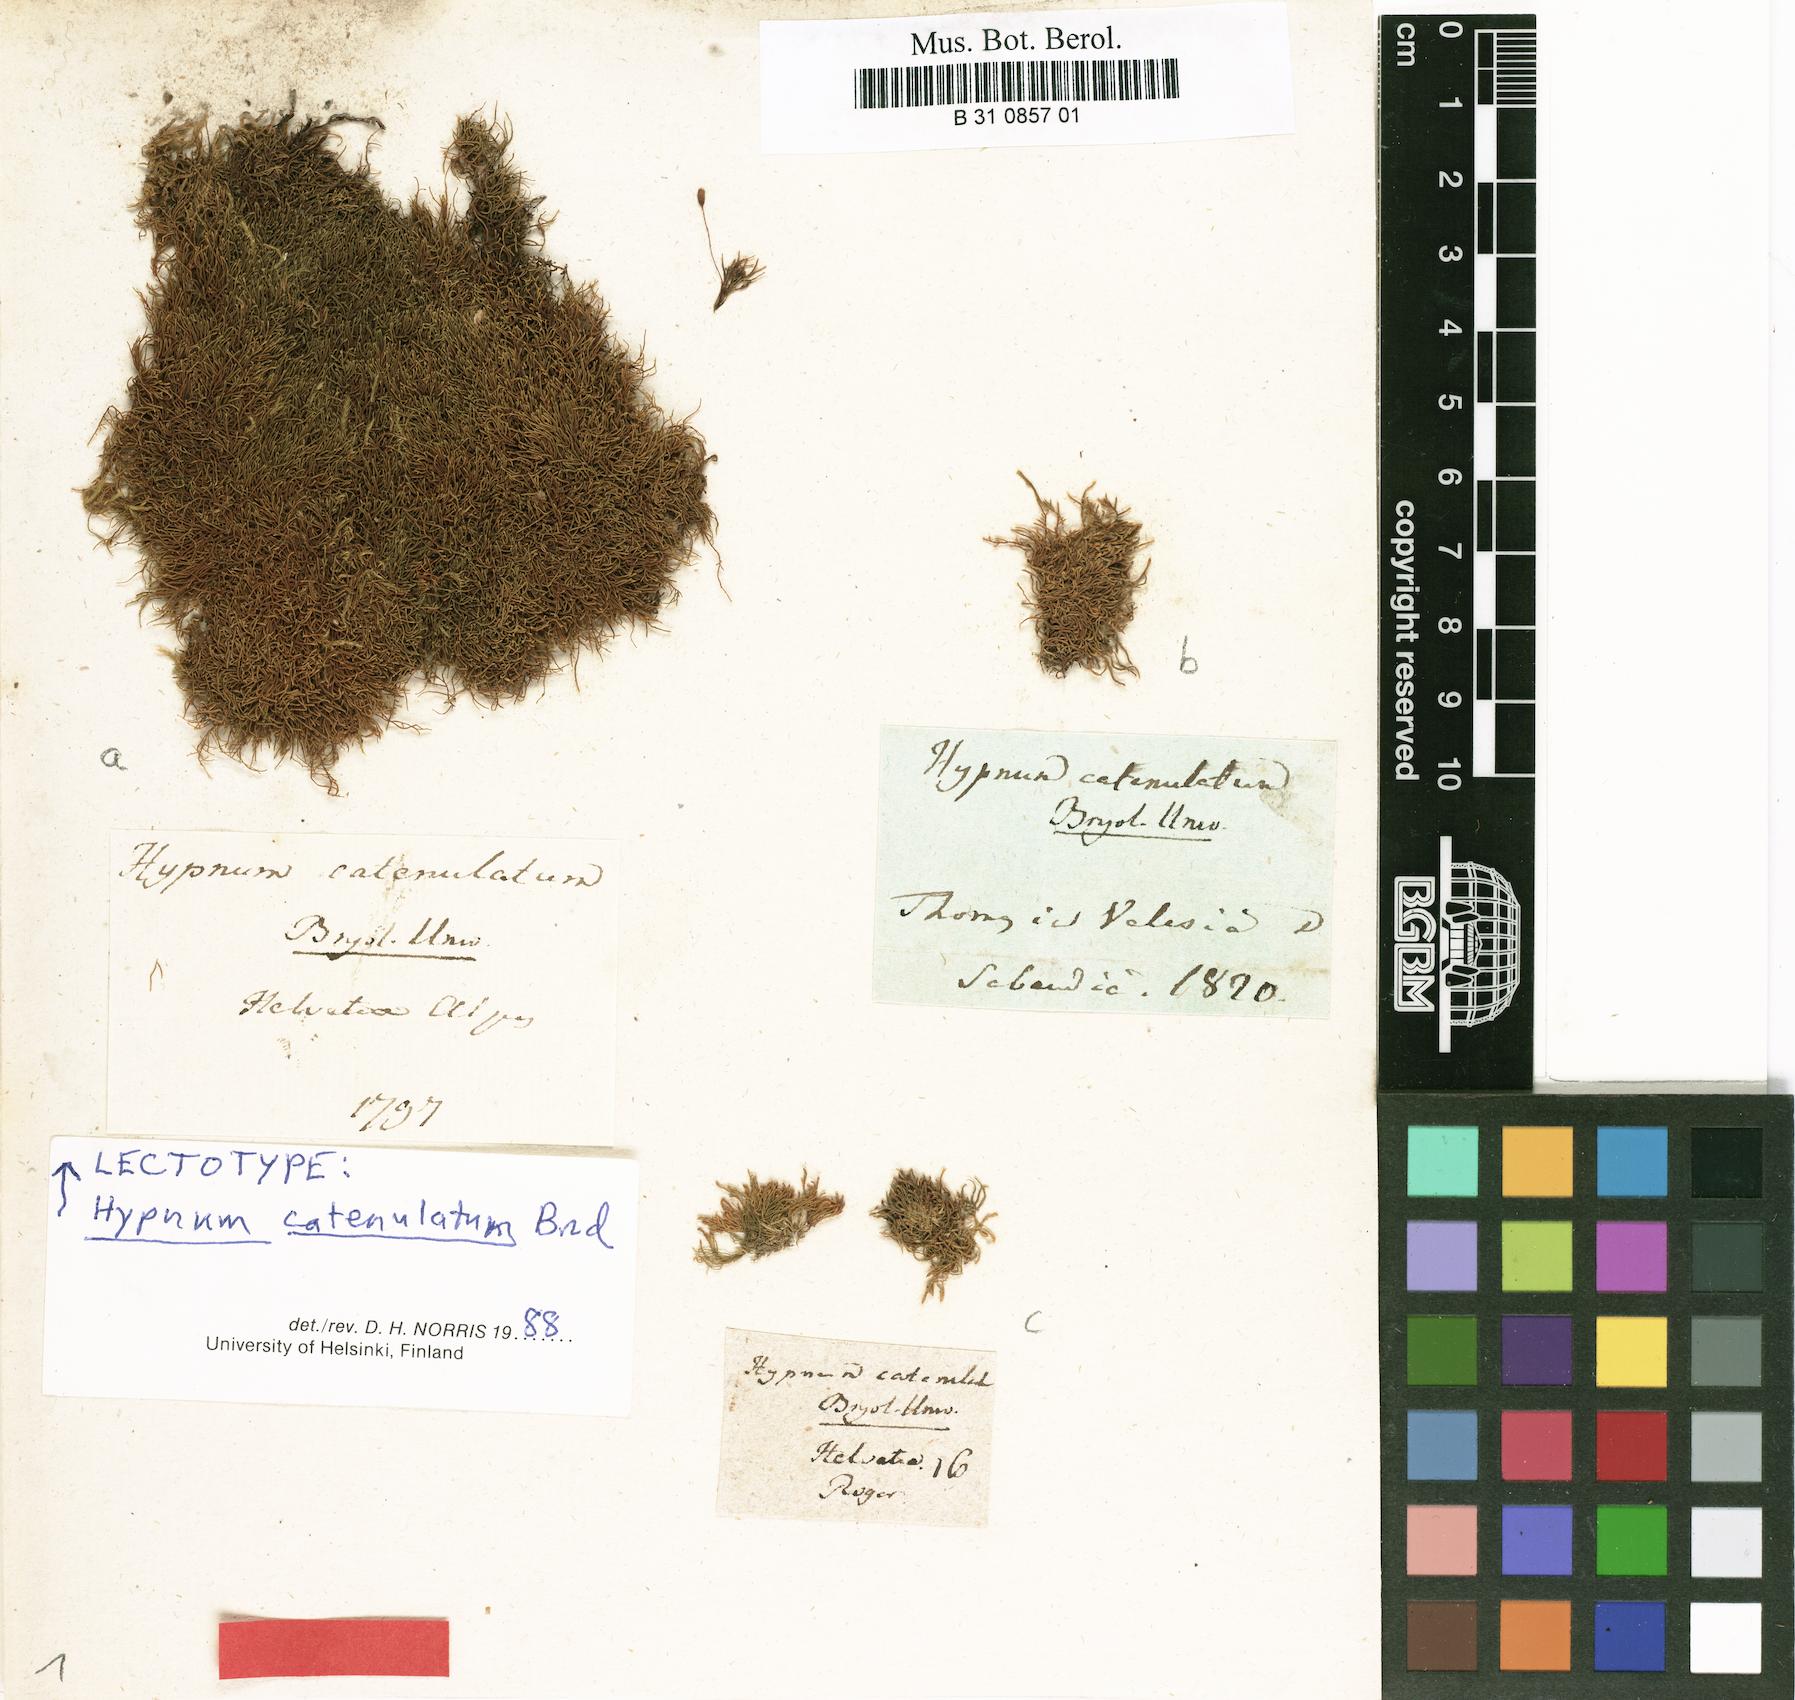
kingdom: Plantae
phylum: Bryophyta
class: Bryopsida
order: Hypnales
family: Pseudoleskeellaceae
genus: Pseudoleskeella
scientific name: Pseudoleskeella catenulata
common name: Chained leskea
